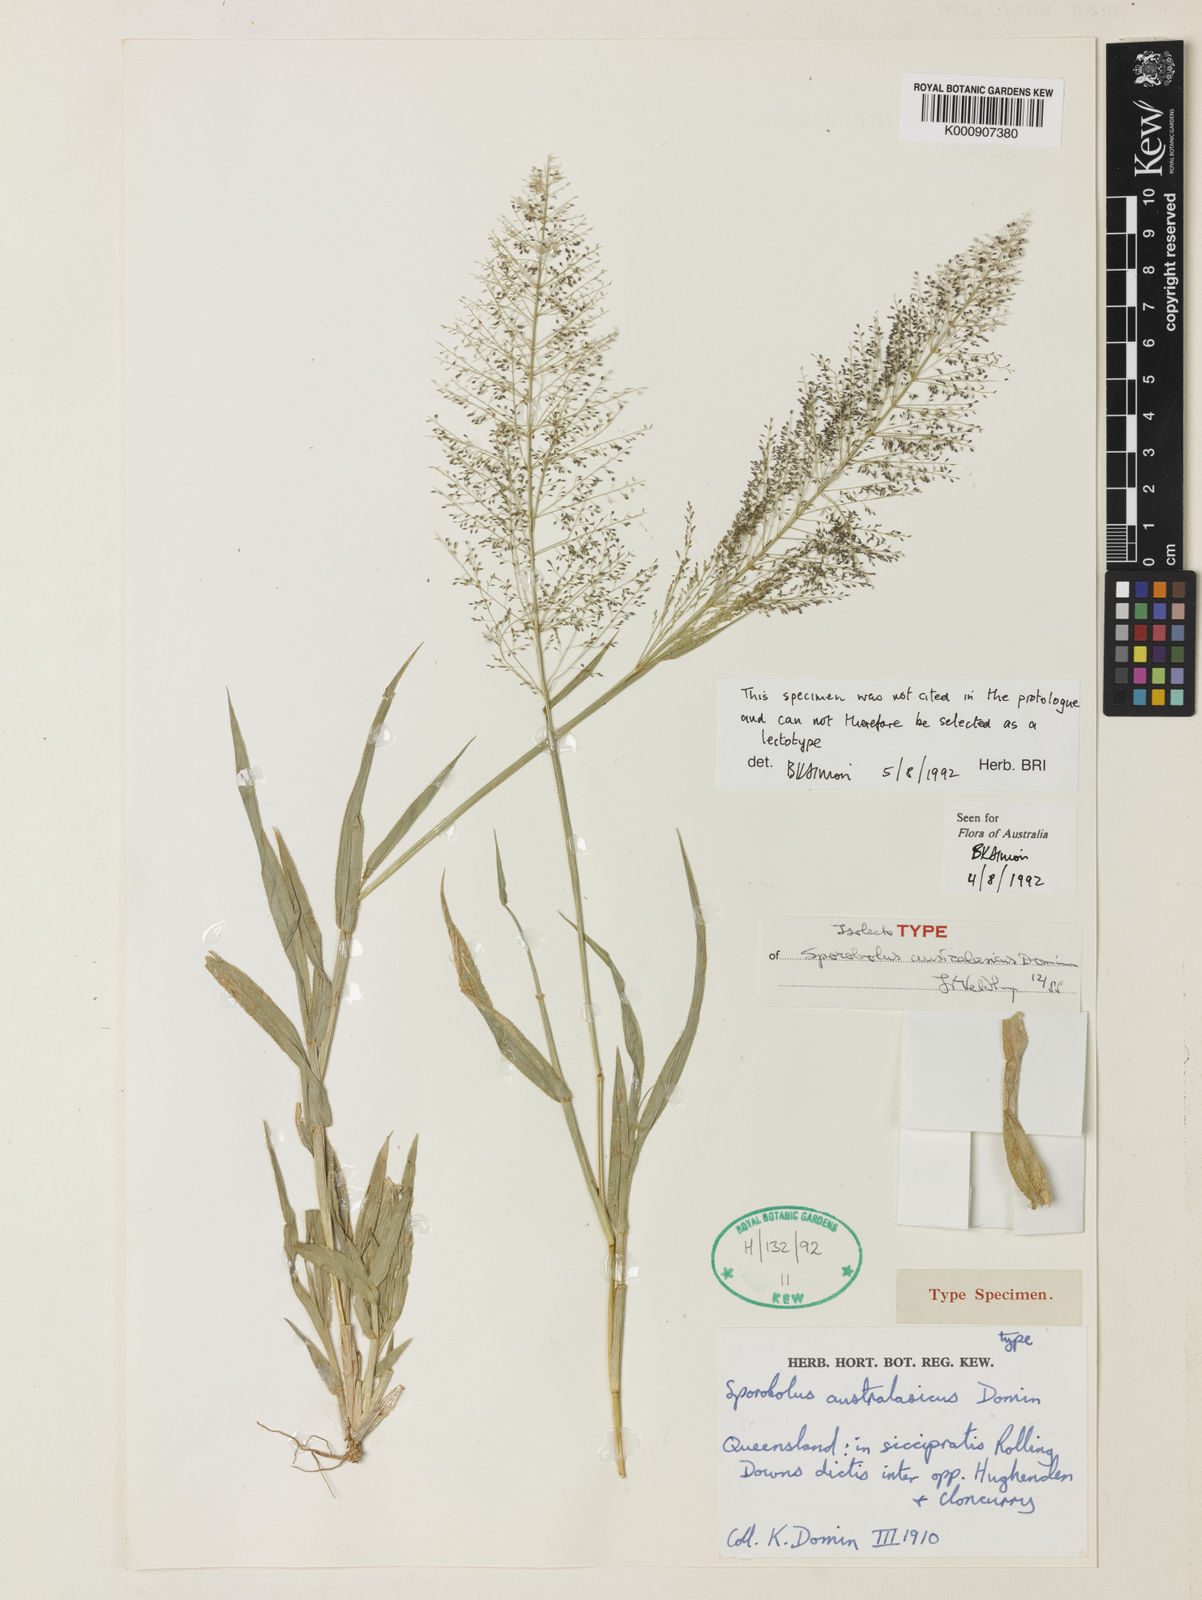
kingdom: Plantae
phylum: Tracheophyta
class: Liliopsida
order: Poales
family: Poaceae
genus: Sporobolus
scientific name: Sporobolus australasicus
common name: Australian dropseed
